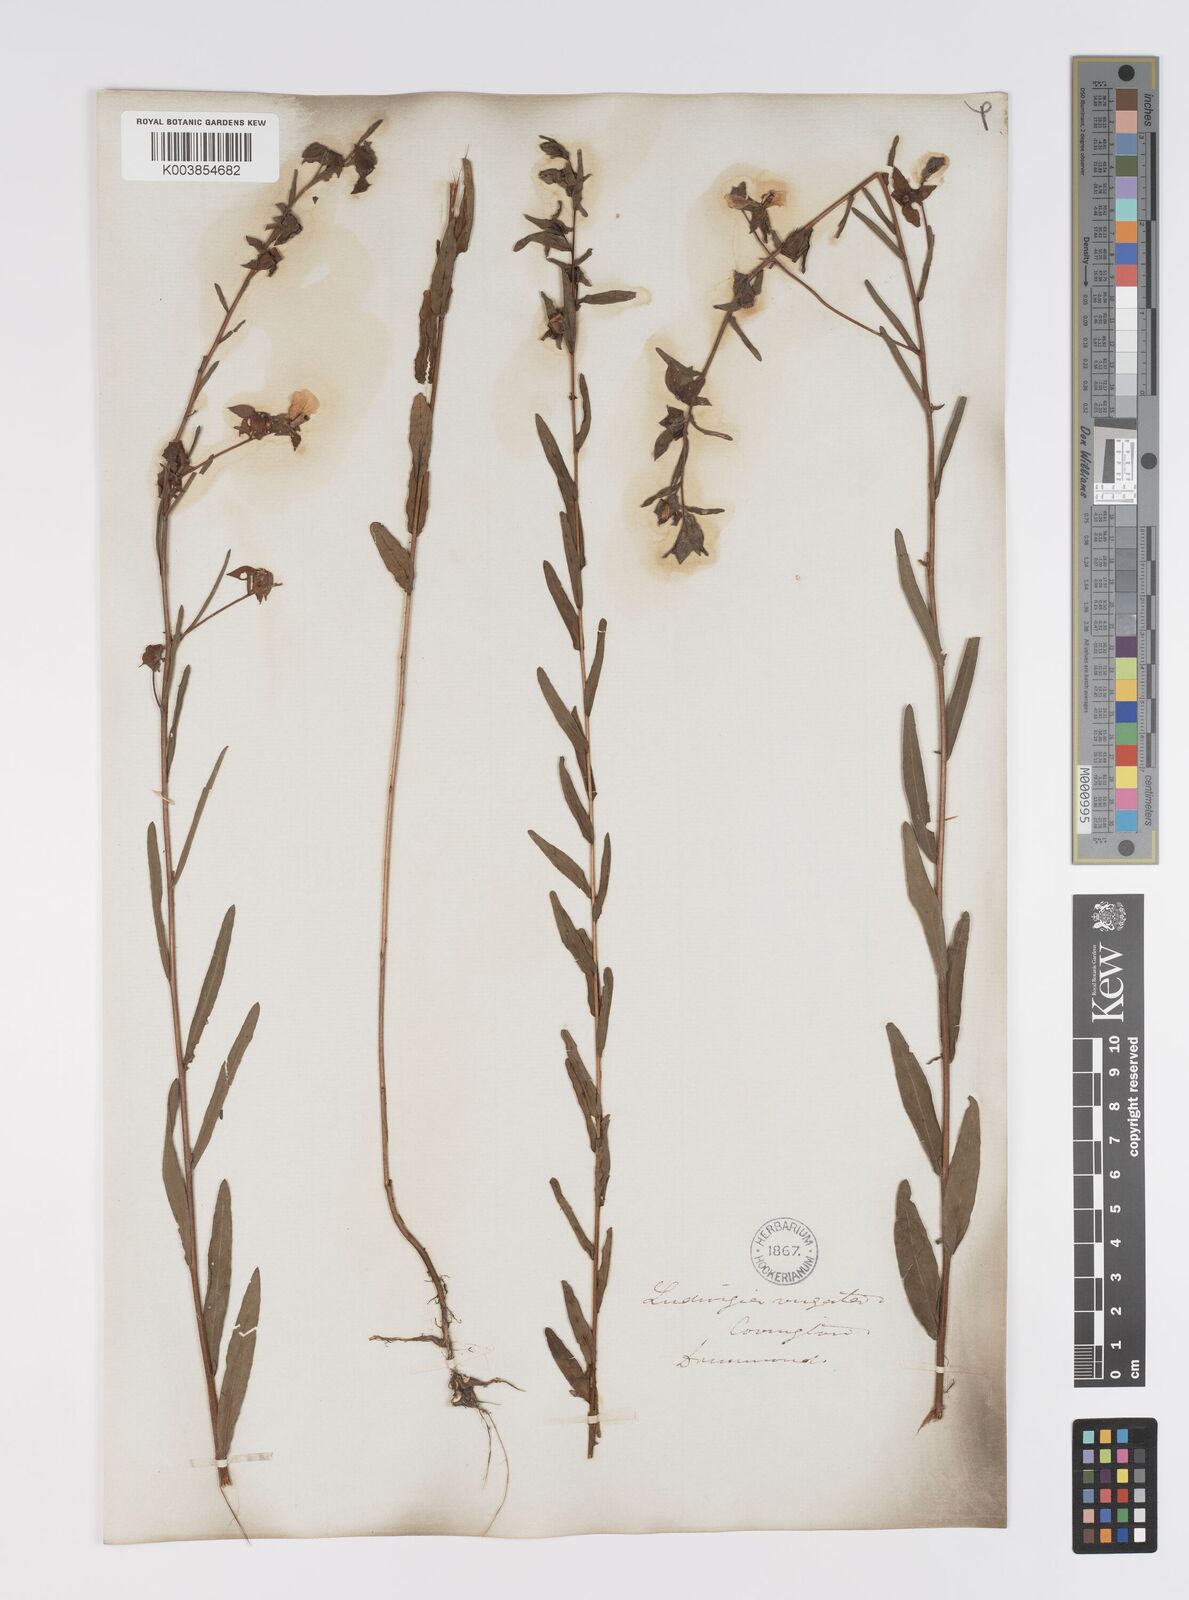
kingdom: Plantae
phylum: Tracheophyta
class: Magnoliopsida
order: Myrtales
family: Onagraceae
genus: Ludwigia
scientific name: Ludwigia virgata
